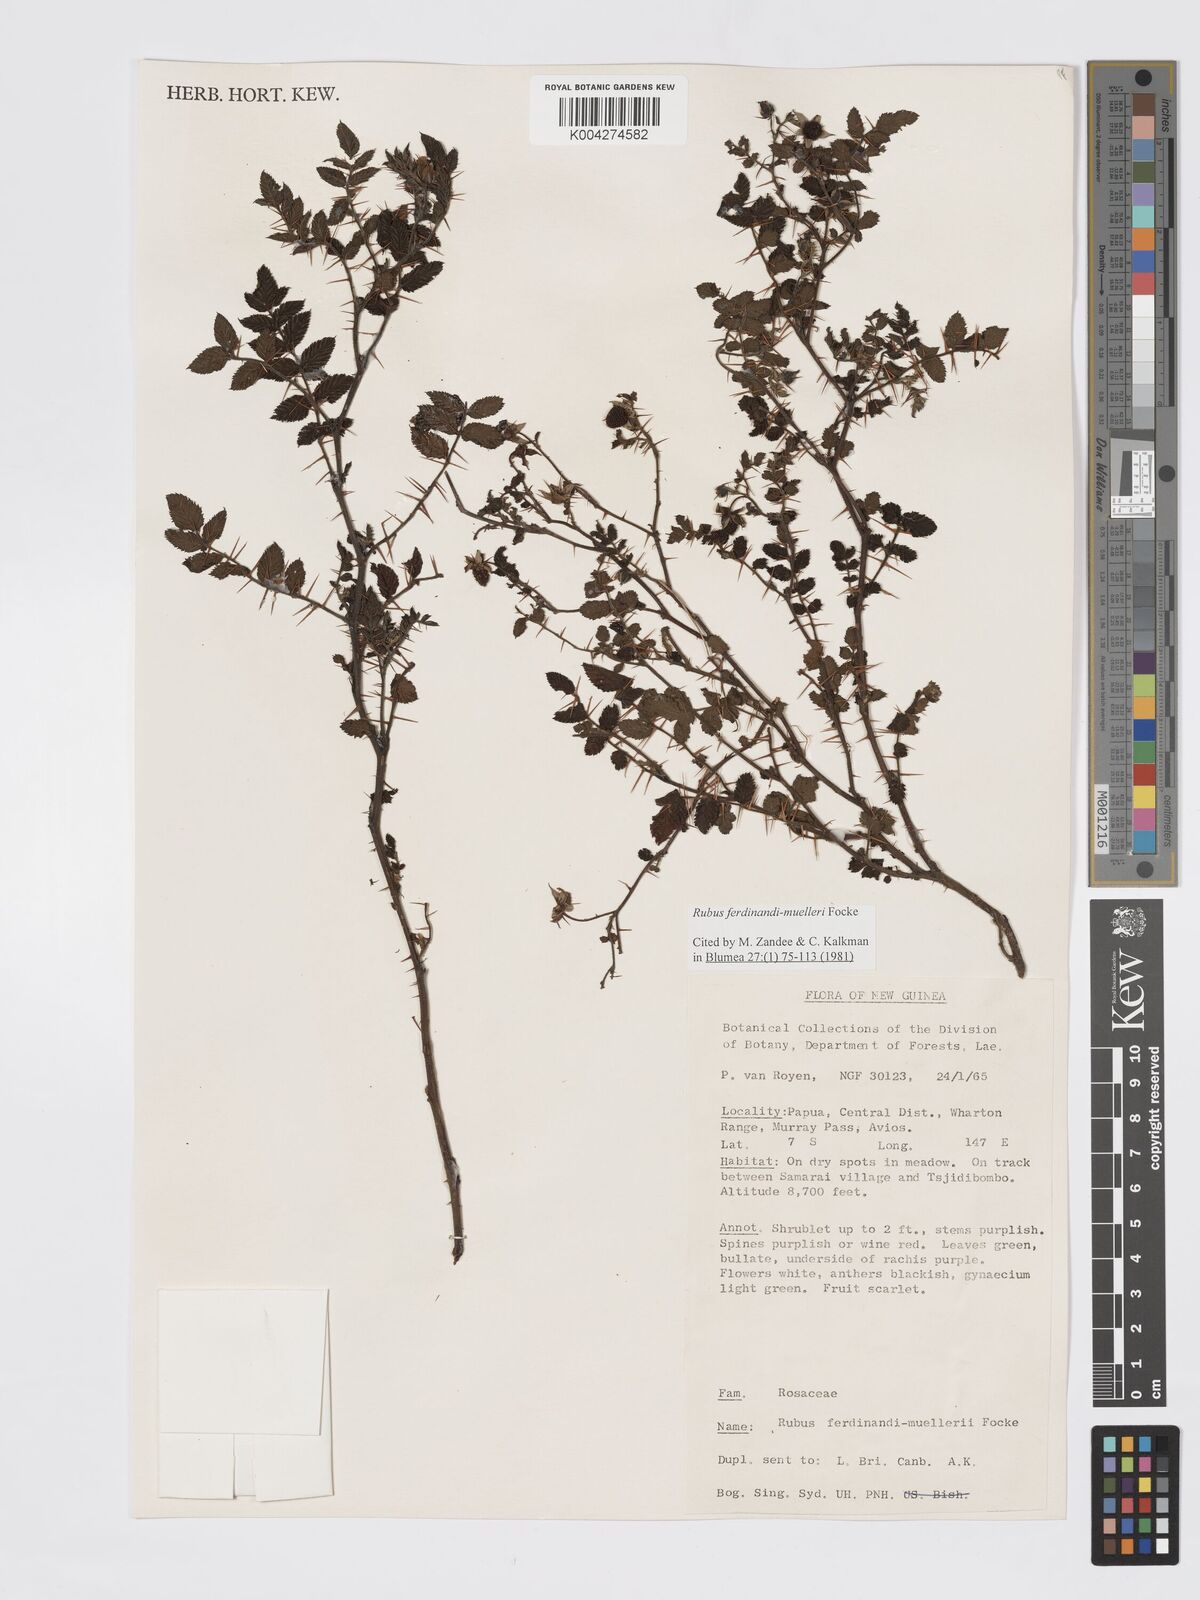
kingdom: Plantae
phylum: Tracheophyta
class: Magnoliopsida
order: Rosales
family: Rosaceae
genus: Rubus
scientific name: Rubus ferdinandimuelleri
